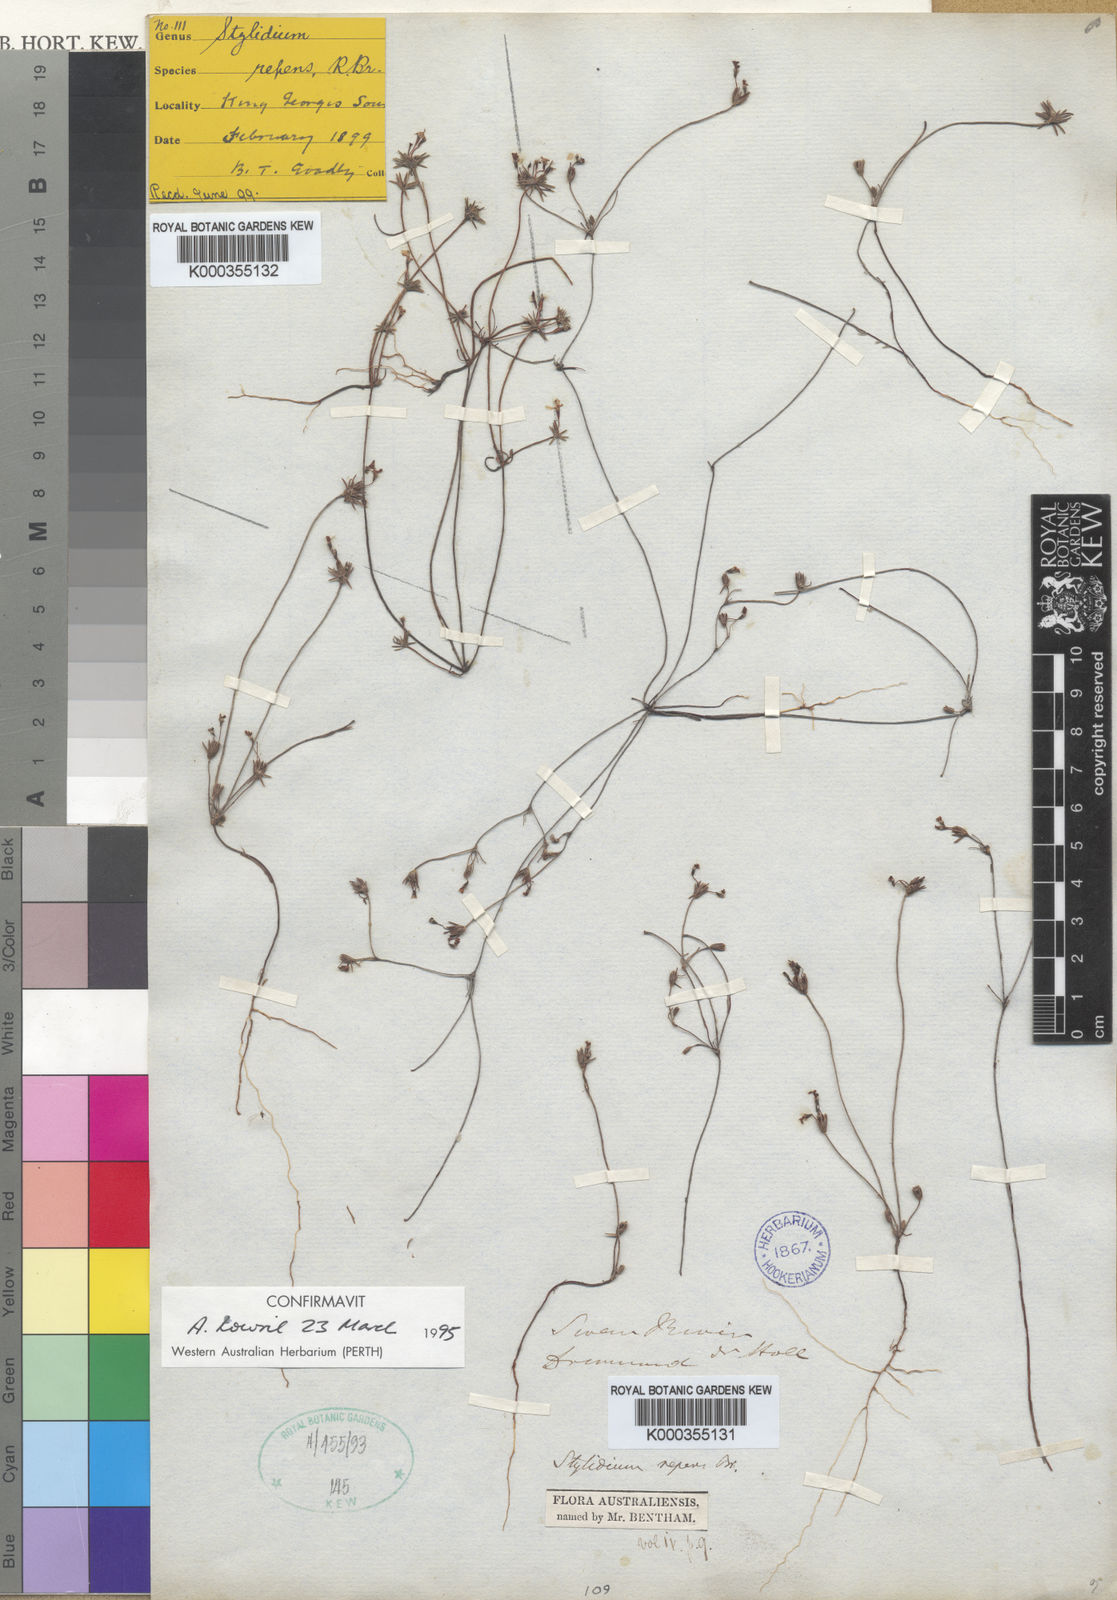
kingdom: Plantae
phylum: Tracheophyta
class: Magnoliopsida
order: Asterales
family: Stylidiaceae
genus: Stylidium
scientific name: Stylidium repens
